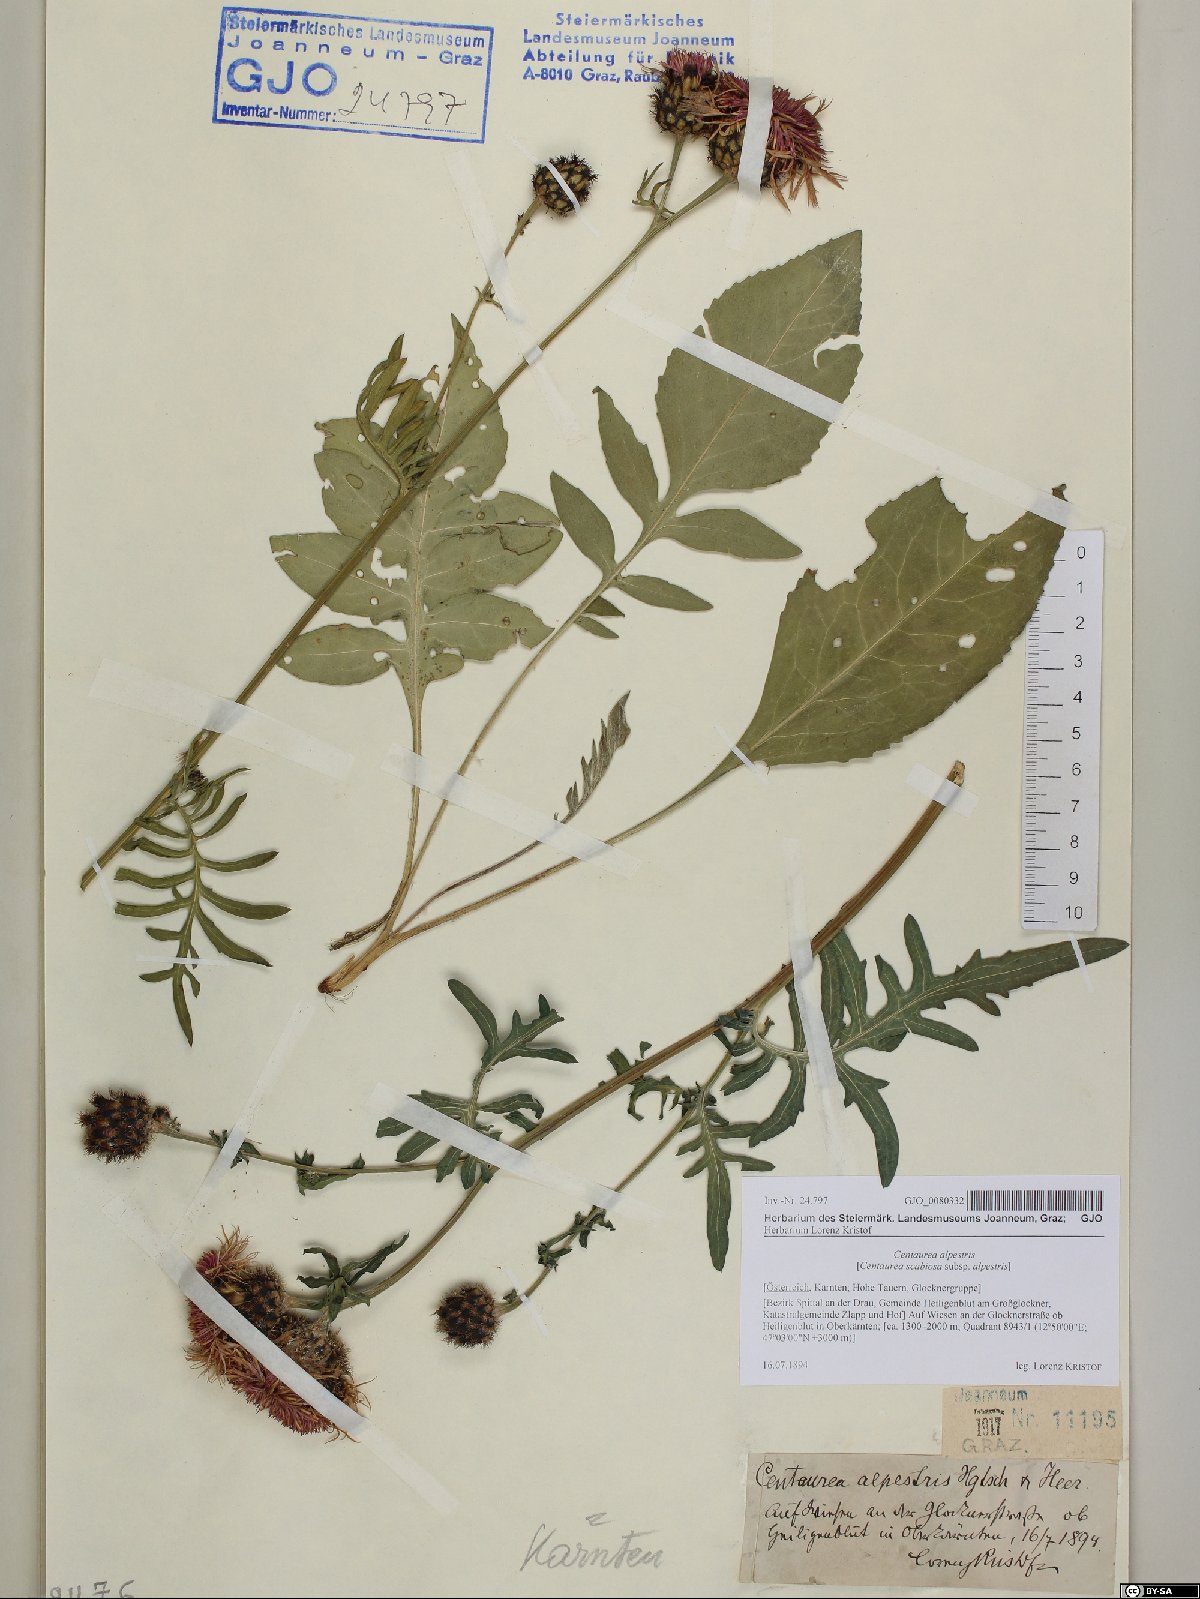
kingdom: Plantae
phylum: Tracheophyta
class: Magnoliopsida
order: Asterales
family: Asteraceae
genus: Centaurea
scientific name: Centaurea scabiosa
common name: Greater knapweed
